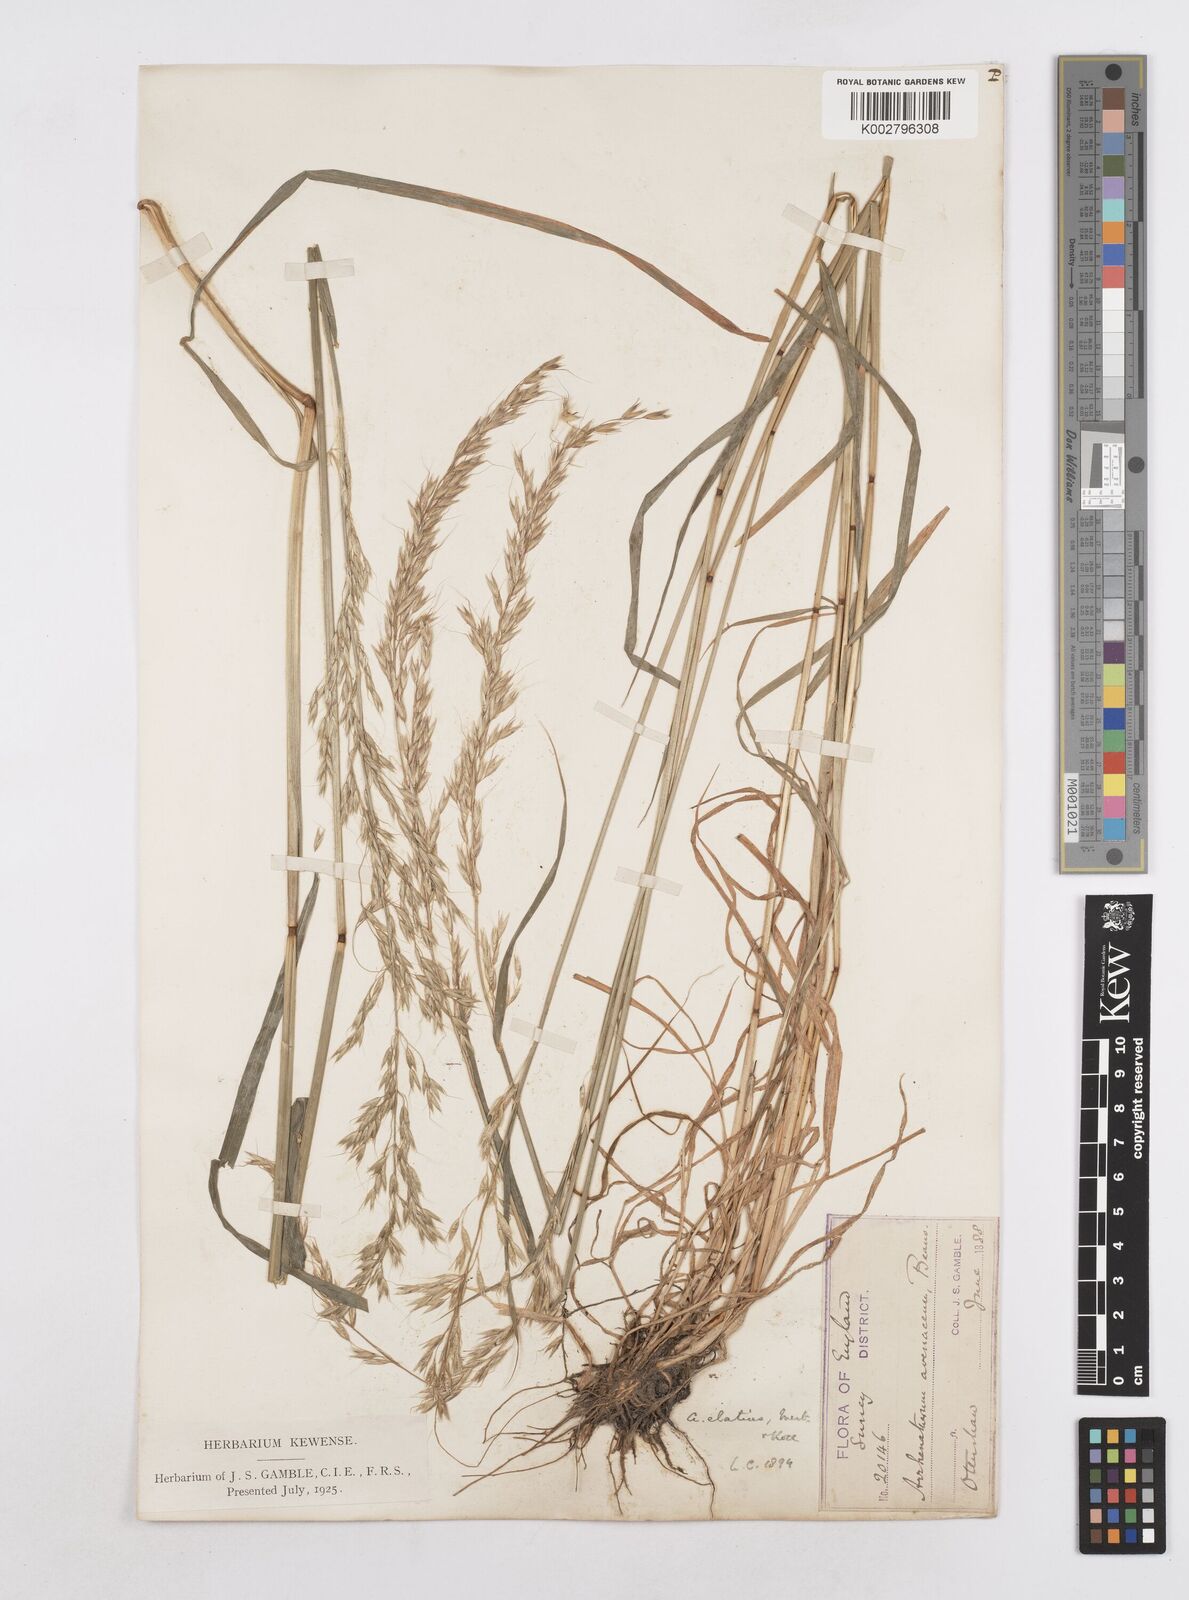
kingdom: Plantae
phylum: Tracheophyta
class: Liliopsida
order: Poales
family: Poaceae
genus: Arrhenatherum
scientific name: Arrhenatherum elatius
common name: Tall oatgrass
